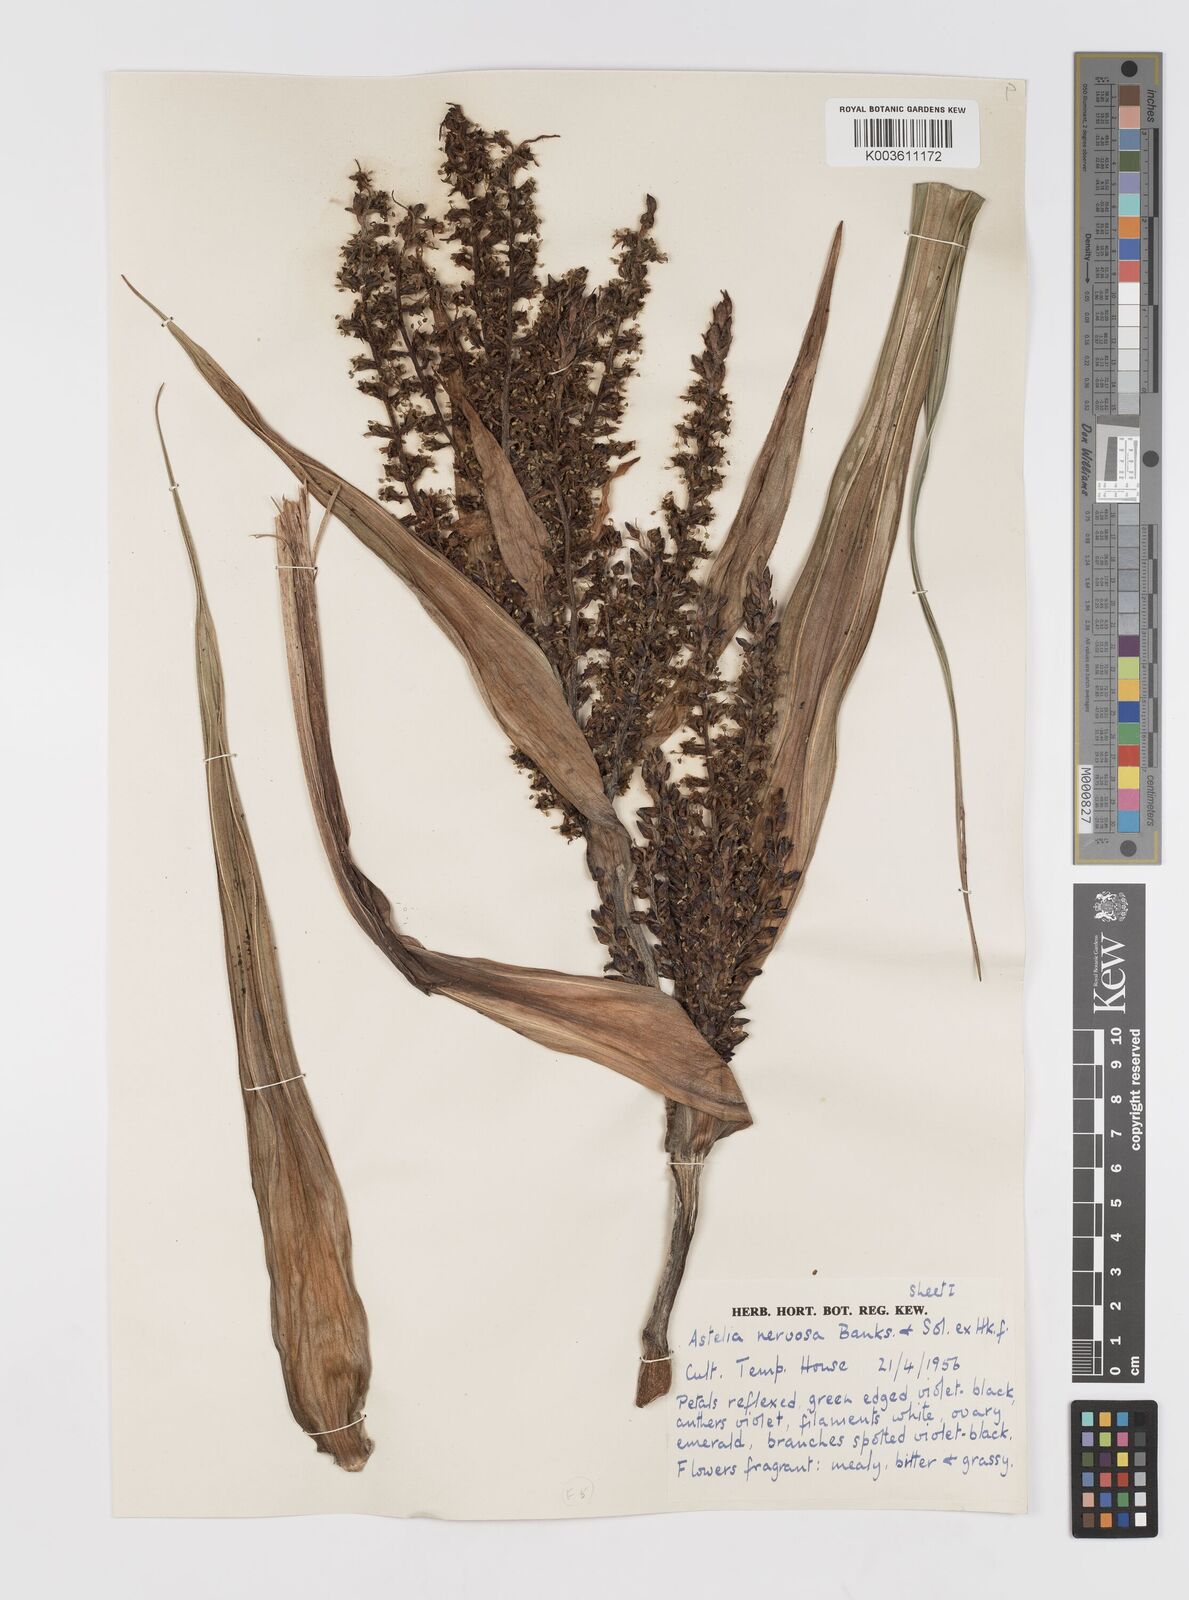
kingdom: Plantae
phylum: Tracheophyta
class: Liliopsida
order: Asparagales
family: Asteliaceae
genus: Astelia
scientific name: Astelia nervosa
